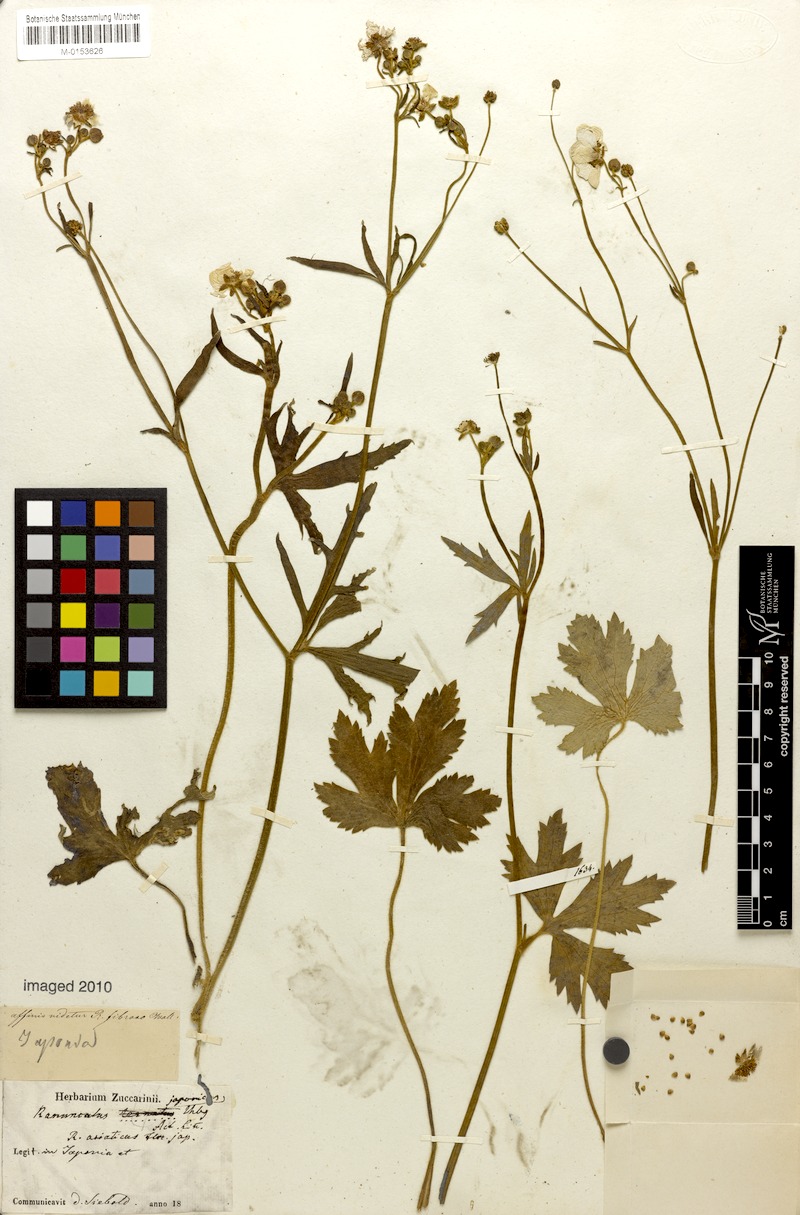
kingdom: Plantae
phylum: Tracheophyta
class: Magnoliopsida
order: Ranunculales
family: Ranunculaceae
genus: Ranunculus
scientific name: Ranunculus japonicus
